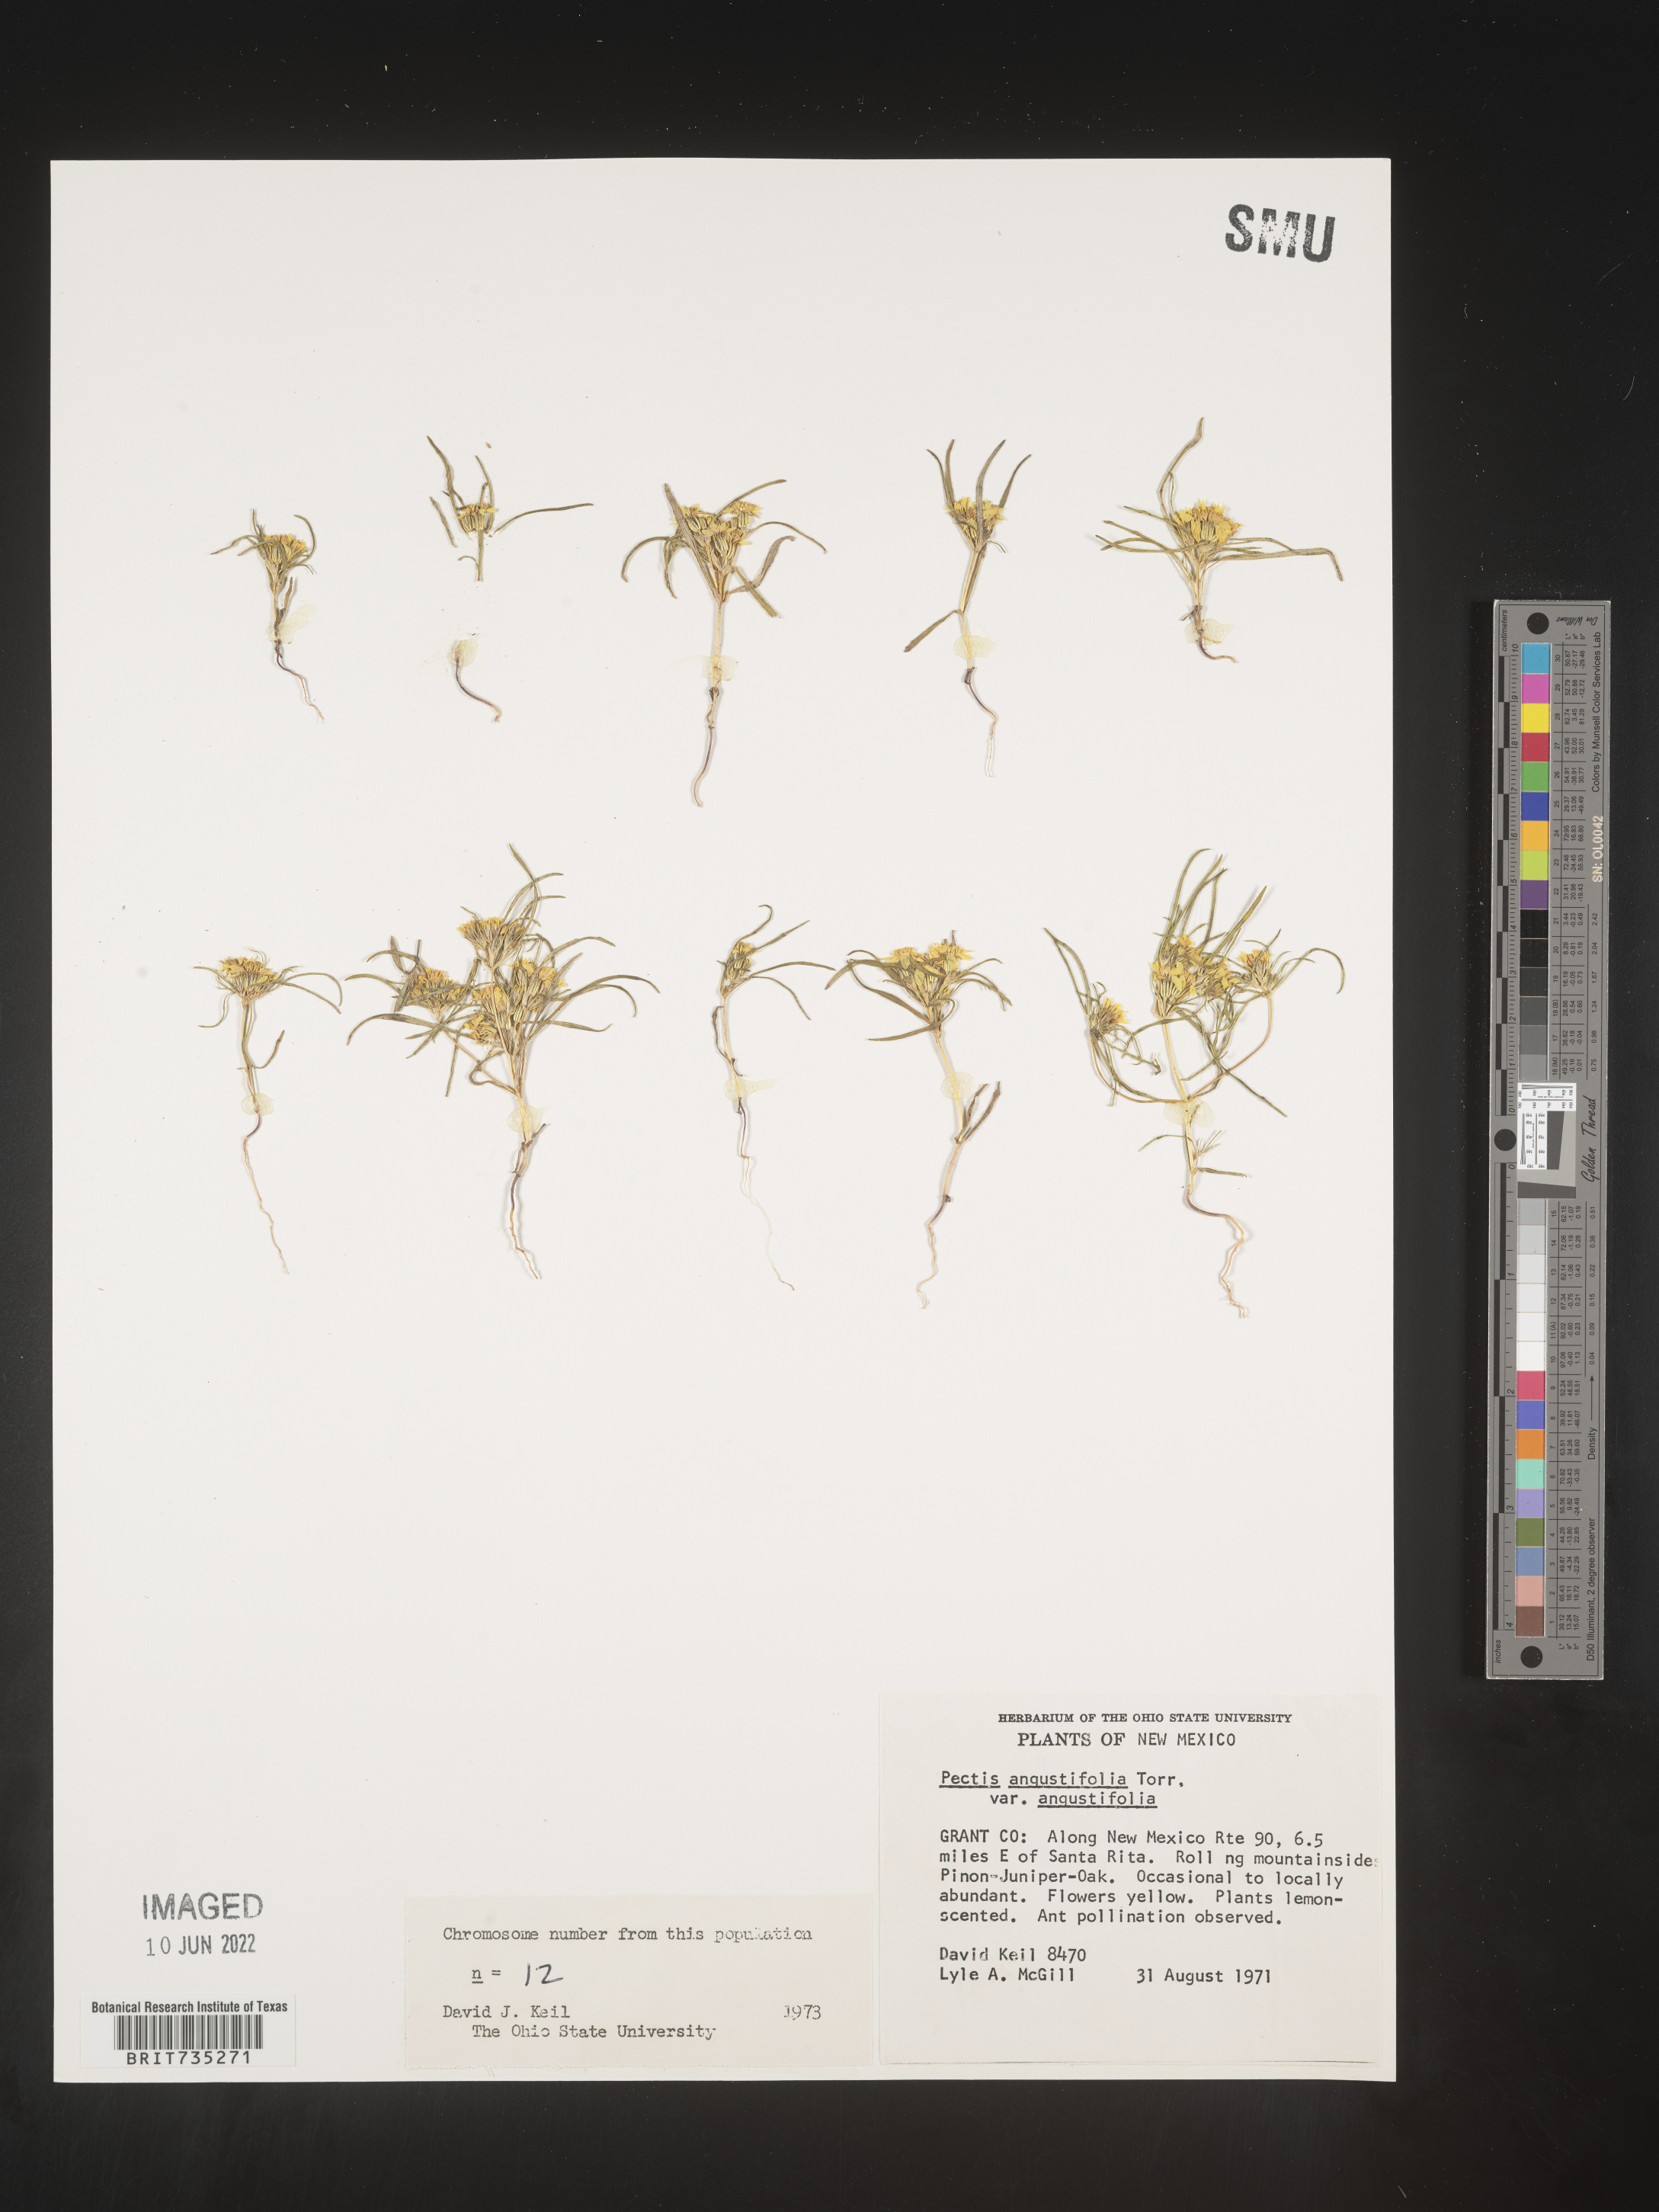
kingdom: Plantae
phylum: Tracheophyta
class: Magnoliopsida
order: Asterales
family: Asteraceae
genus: Pectis
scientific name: Pectis angustifolia
